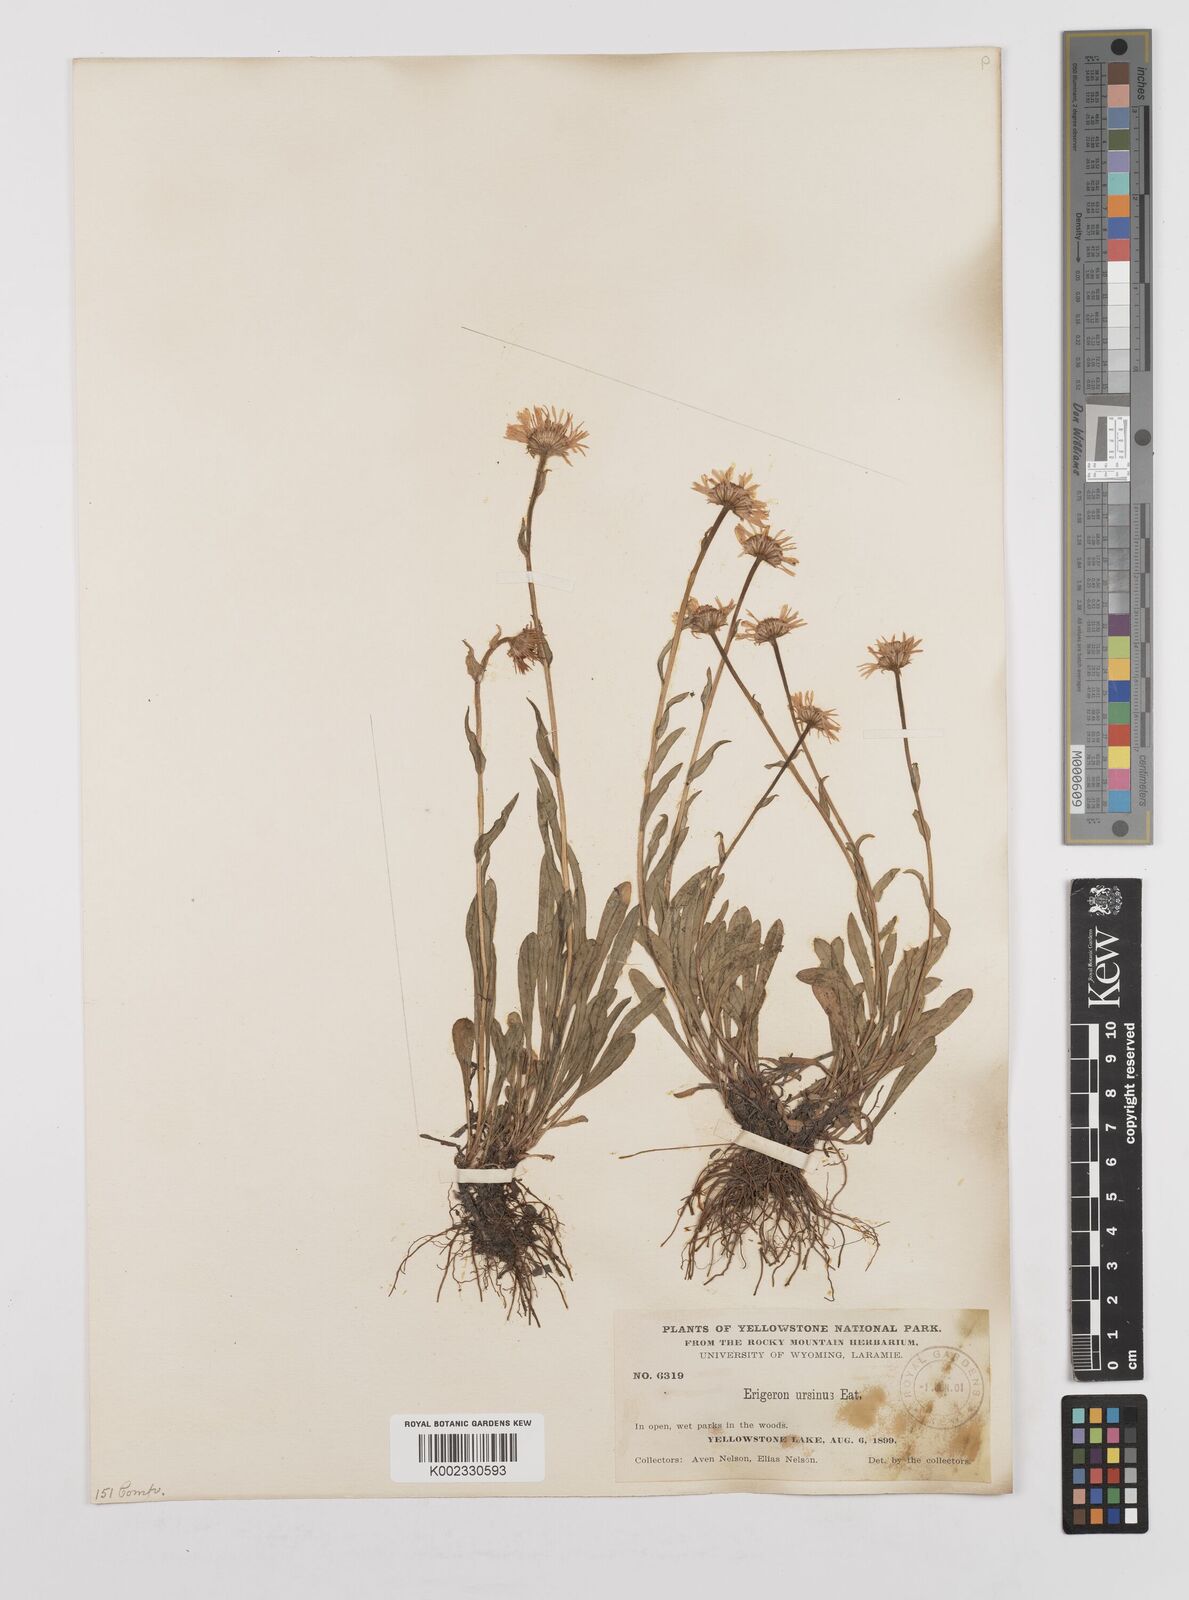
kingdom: Plantae
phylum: Tracheophyta
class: Magnoliopsida
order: Asterales
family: Asteraceae
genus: Erigeron
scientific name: Erigeron ursinus
